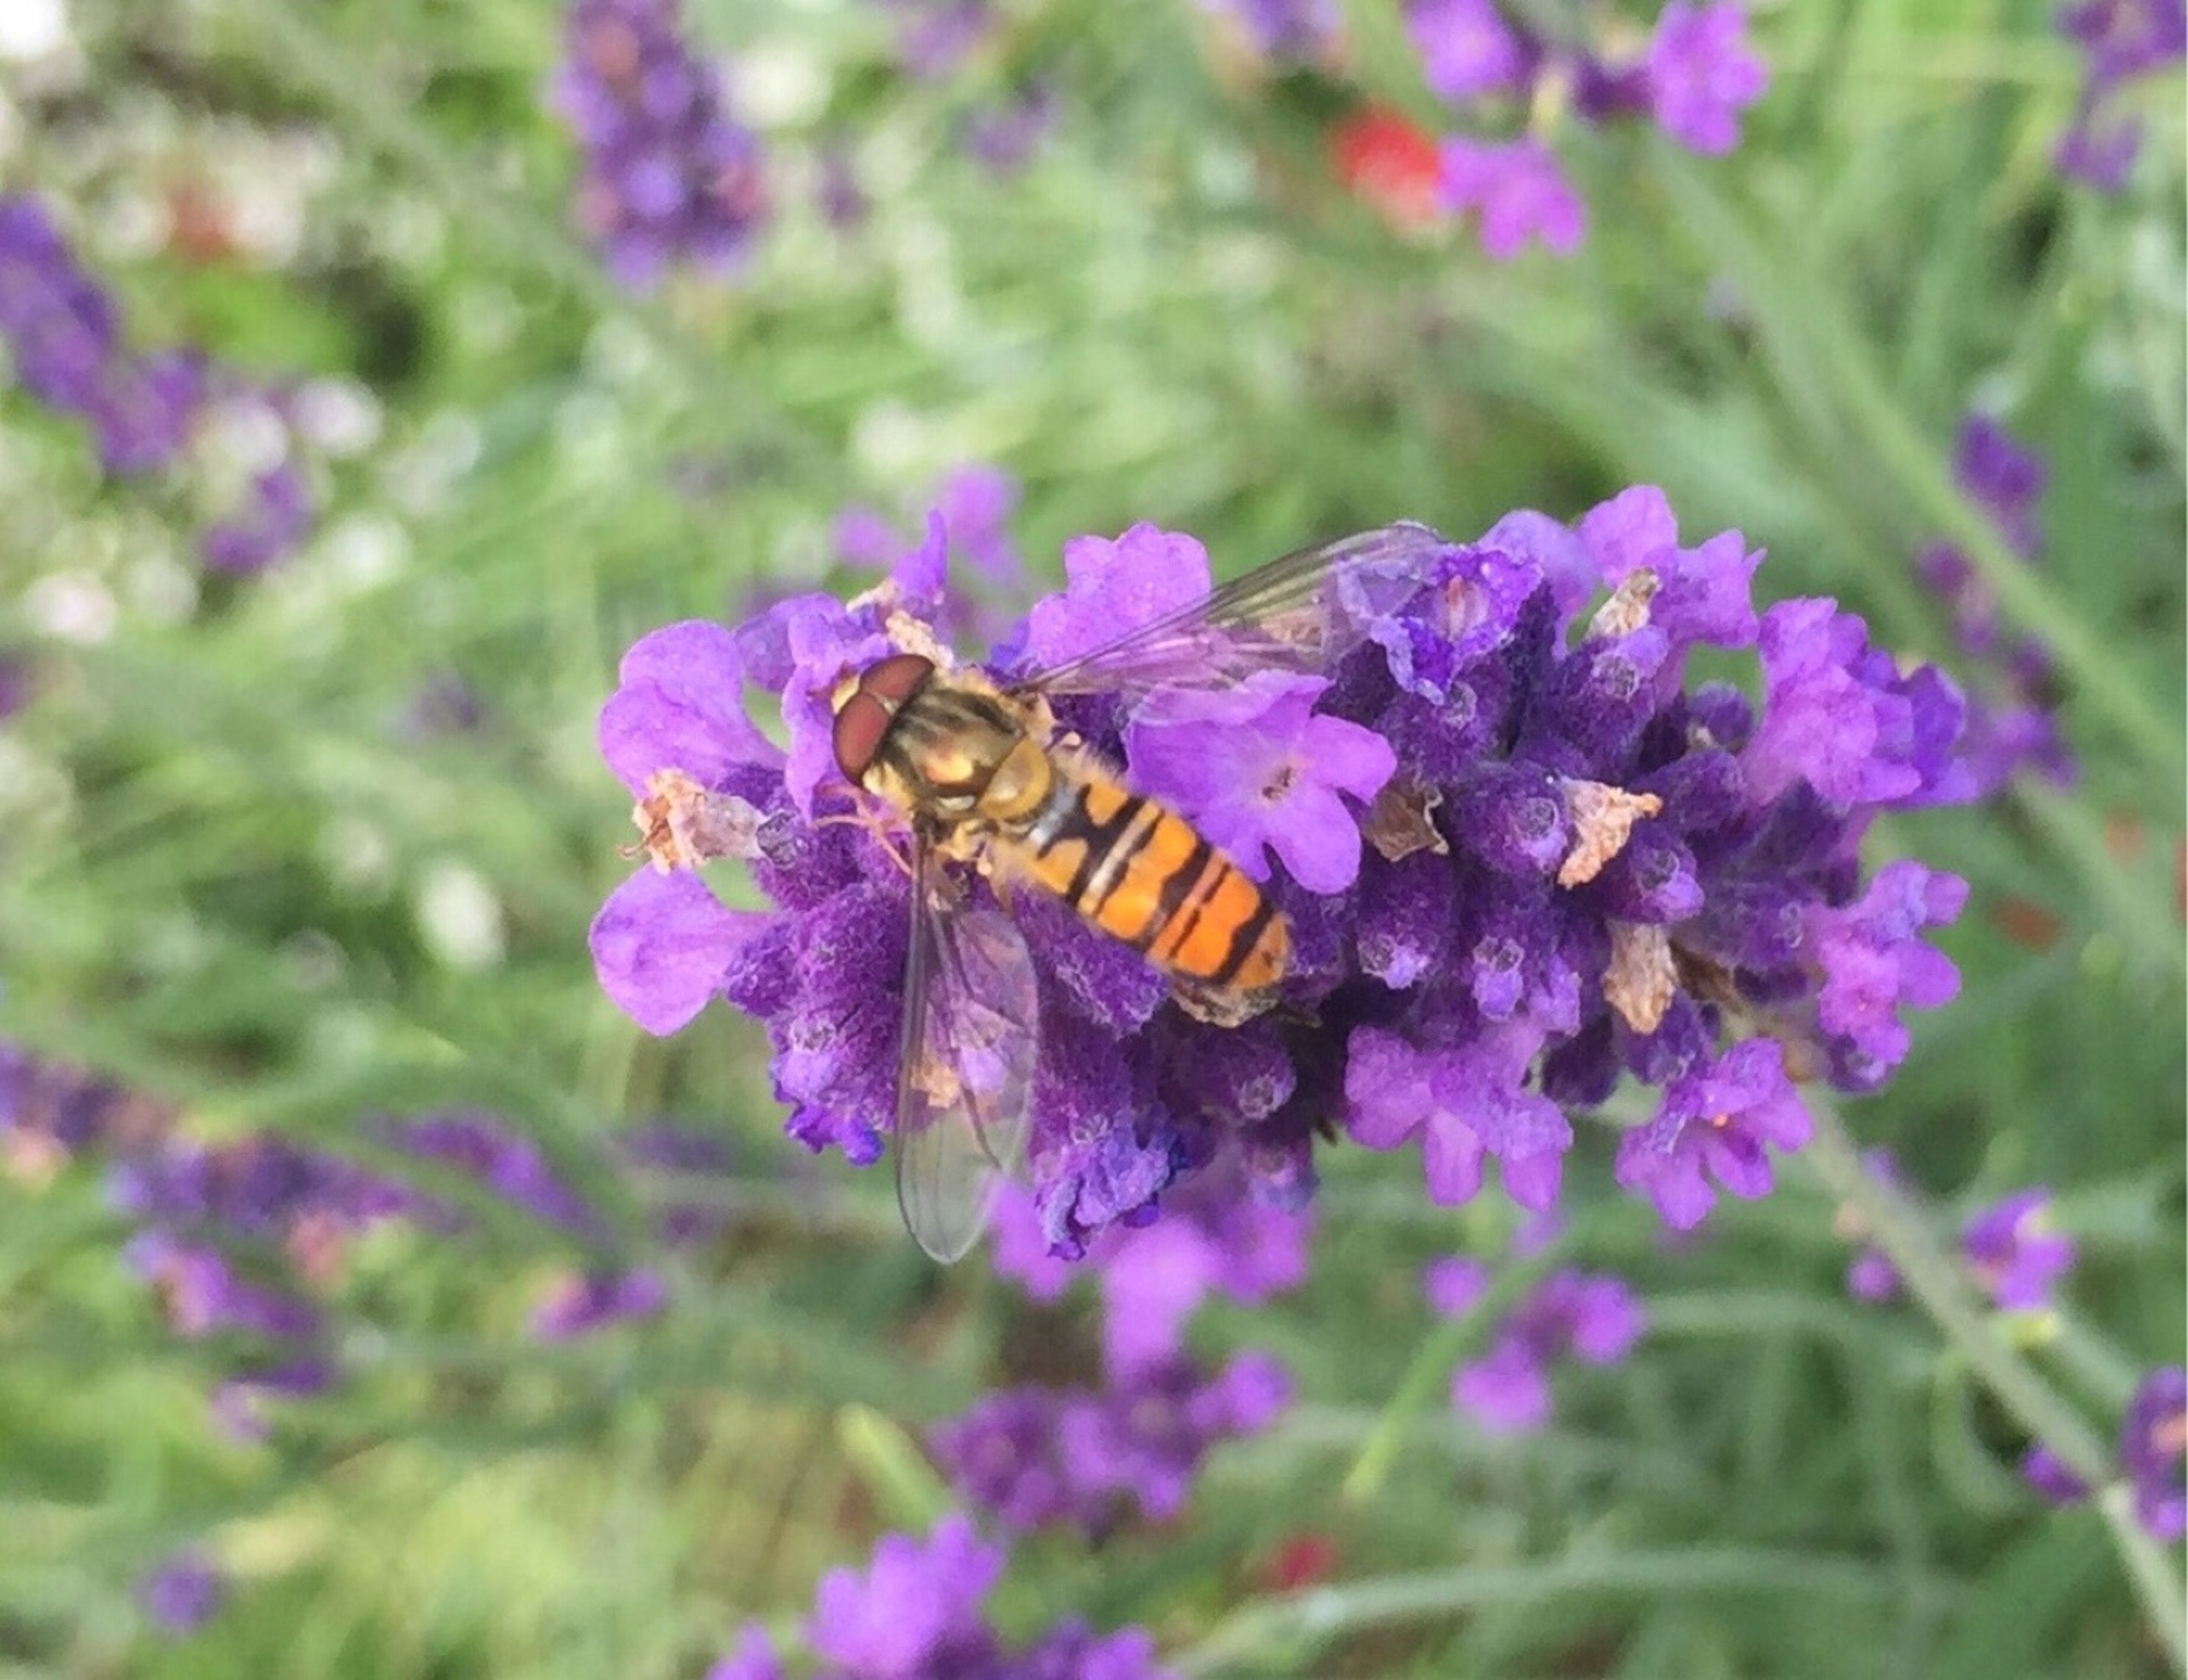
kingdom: Animalia
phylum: Arthropoda
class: Insecta
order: Diptera
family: Syrphidae
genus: Episyrphus
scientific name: Episyrphus balteatus
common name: Dobbeltbåndet svirreflue
